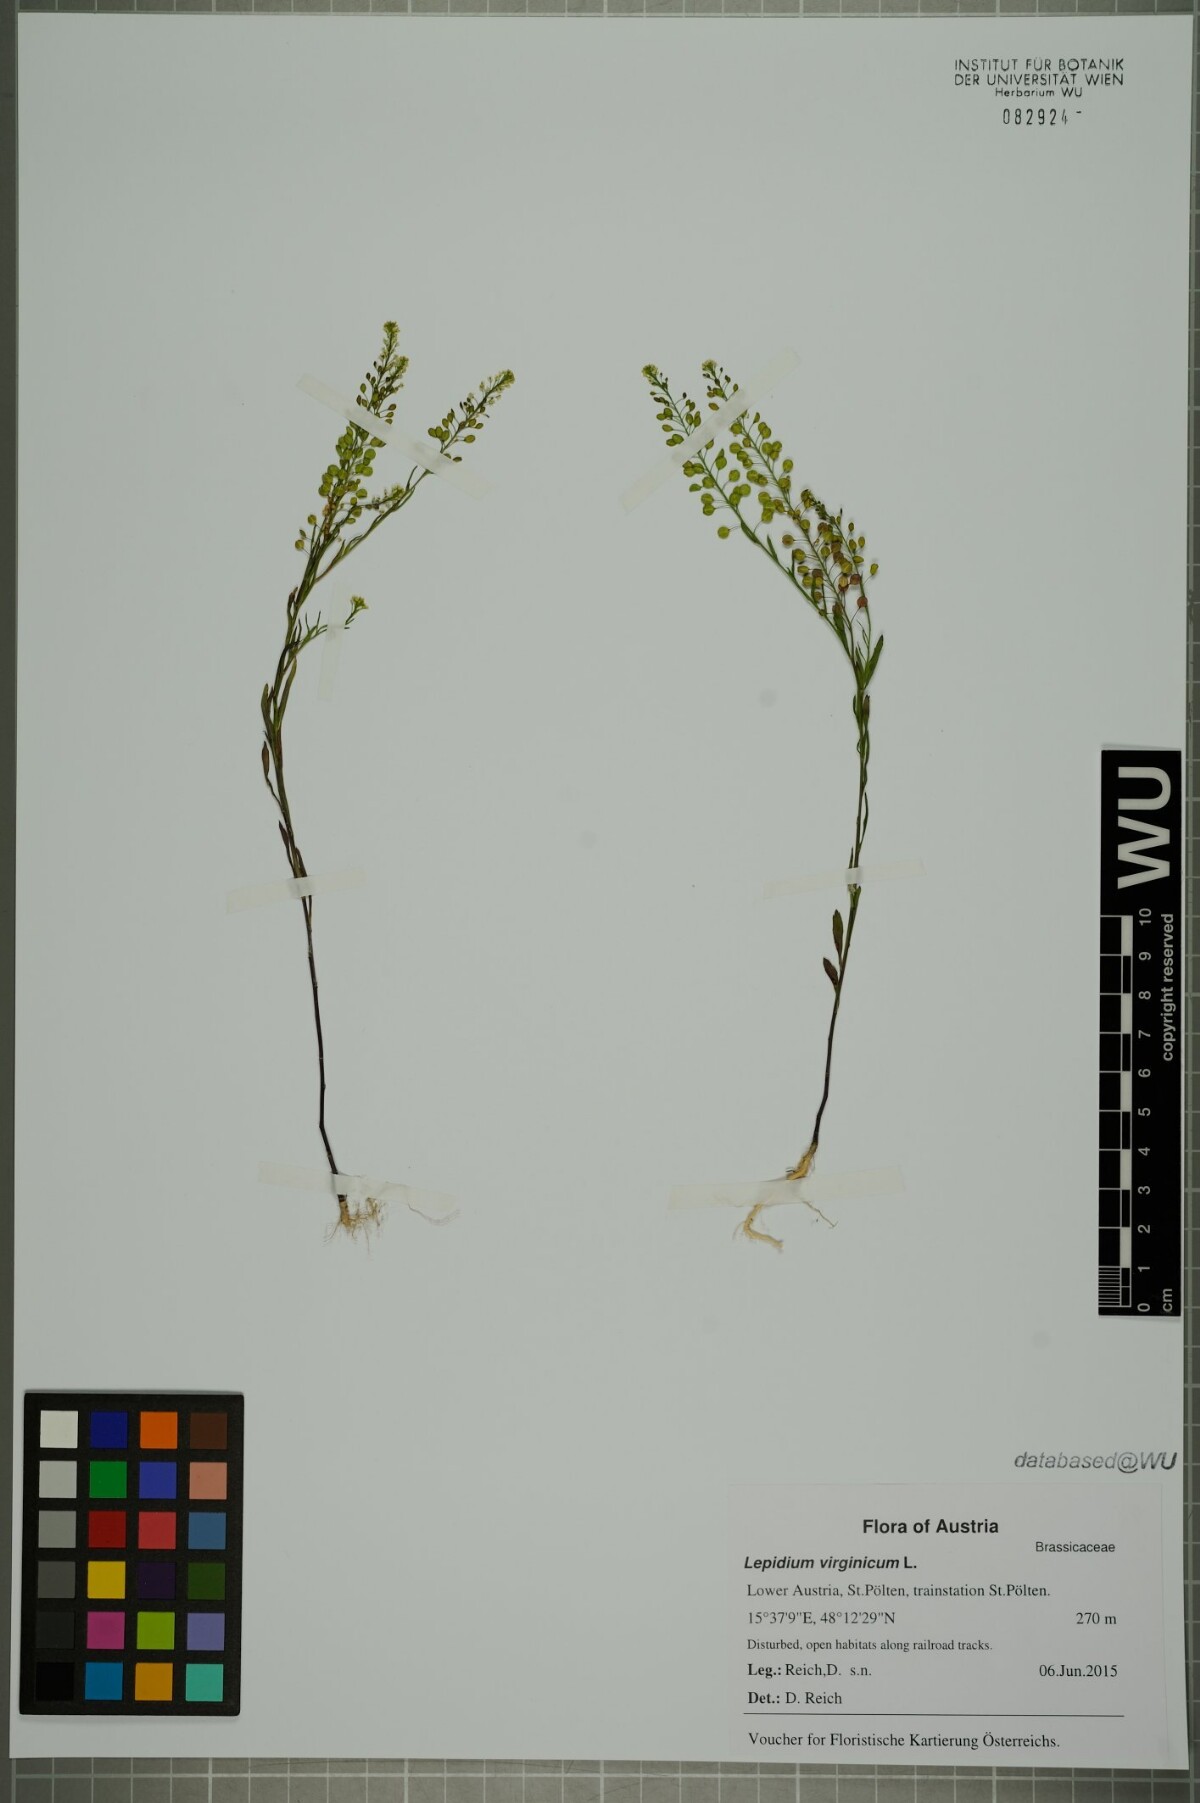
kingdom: Plantae
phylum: Tracheophyta
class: Magnoliopsida
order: Brassicales
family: Brassicaceae
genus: Lepidium
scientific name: Lepidium virginicum
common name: Least pepperwort
